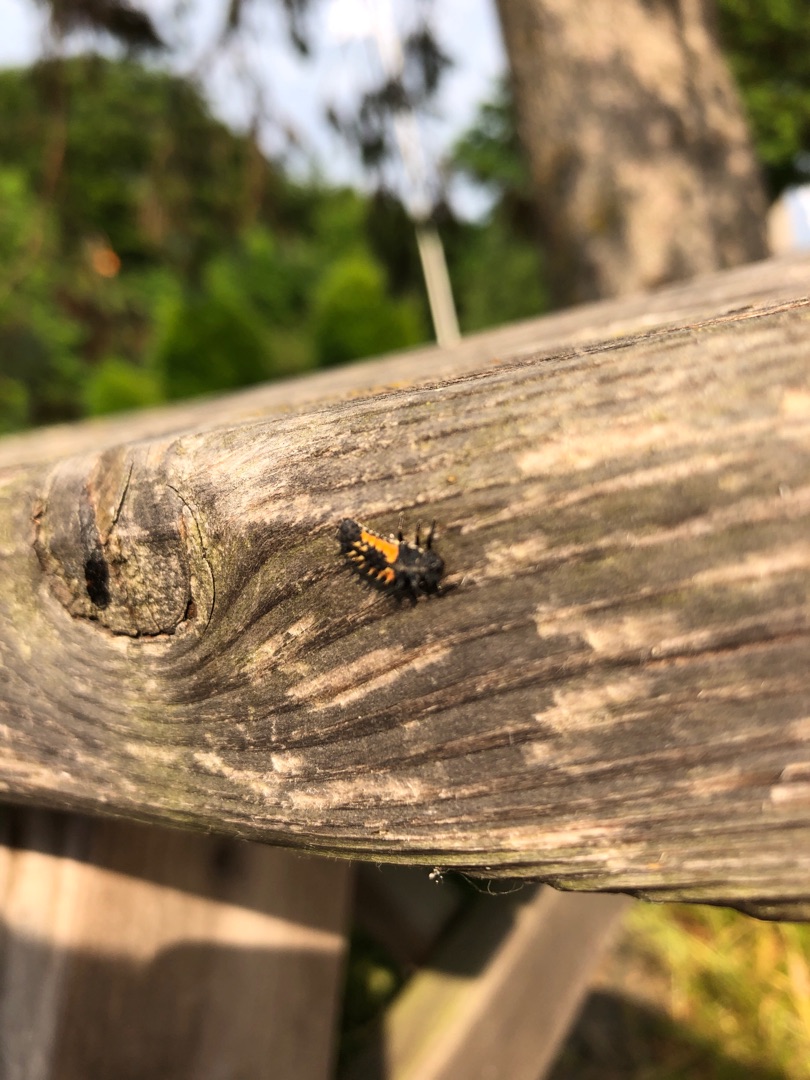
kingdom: Animalia
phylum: Arthropoda
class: Insecta
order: Coleoptera
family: Coccinellidae
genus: Harmonia
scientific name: Harmonia axyridis
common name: Harlekinmariehøne
